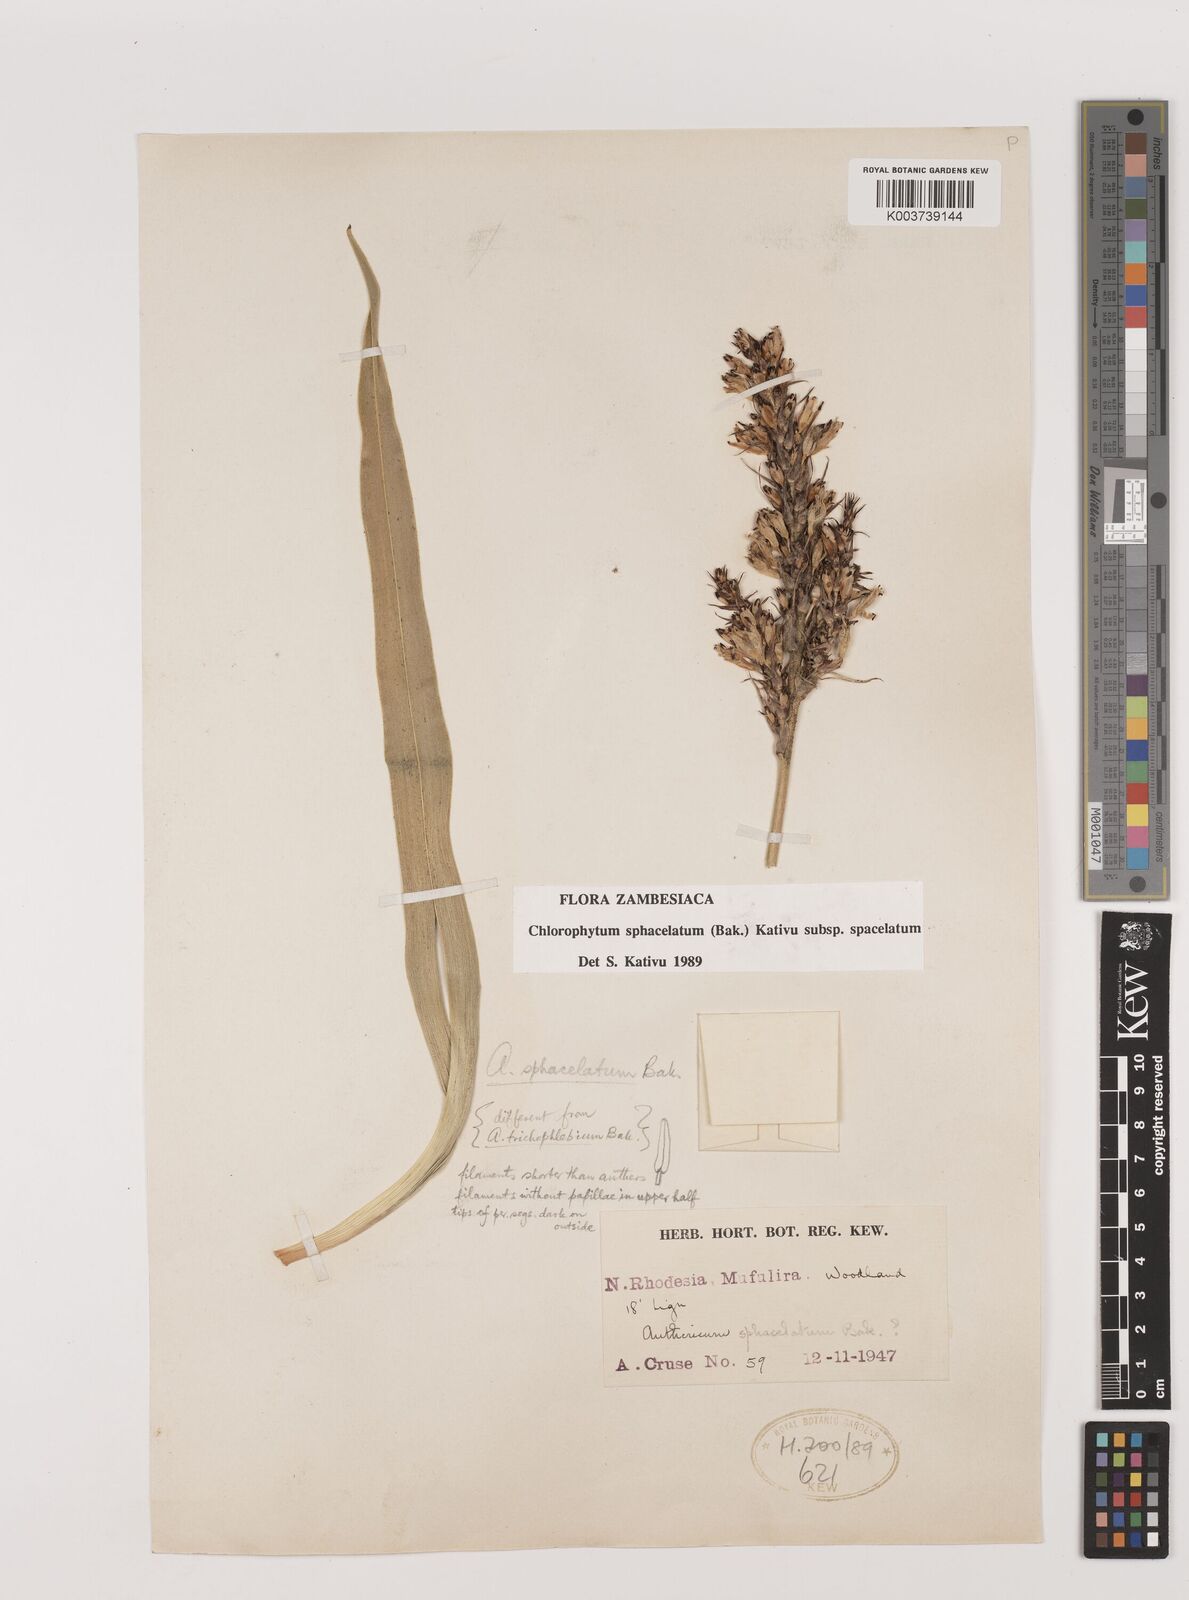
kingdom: Plantae
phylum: Tracheophyta
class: Liliopsida
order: Asparagales
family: Asparagaceae
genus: Chlorophytum
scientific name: Chlorophytum sphacelatum
